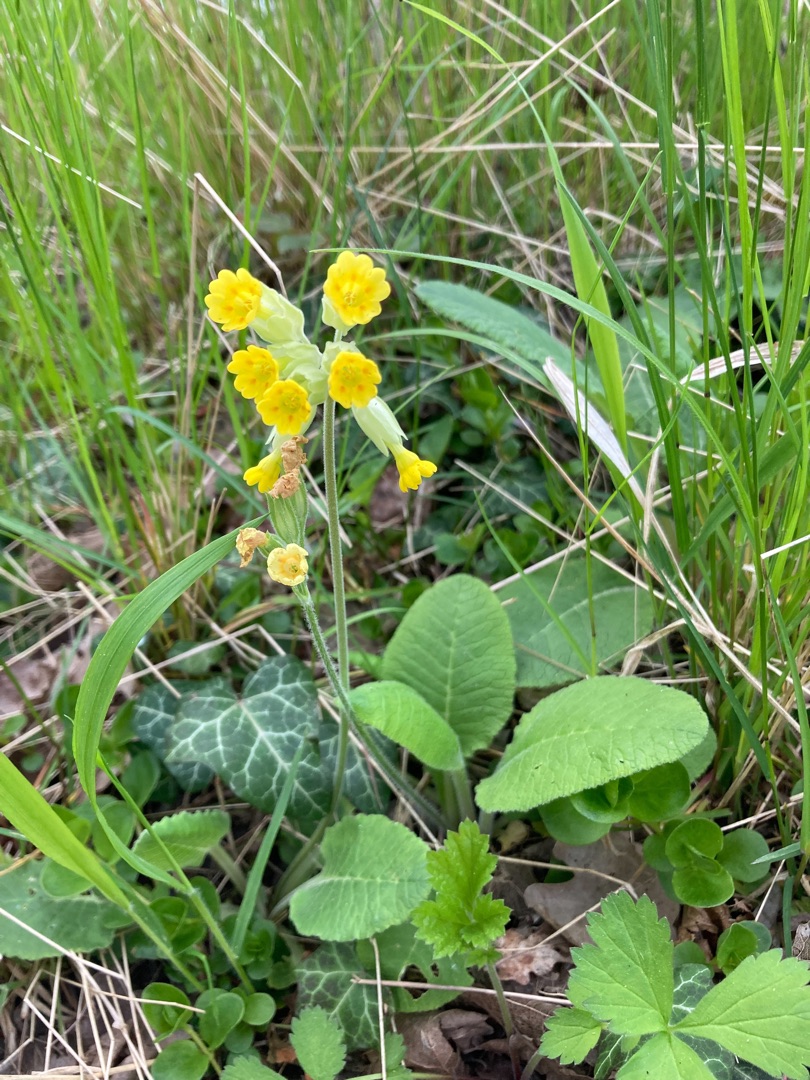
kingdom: Plantae
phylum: Tracheophyta
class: Magnoliopsida
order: Ericales
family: Primulaceae
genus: Primula
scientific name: Primula veris
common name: Hulkravet kodriver
